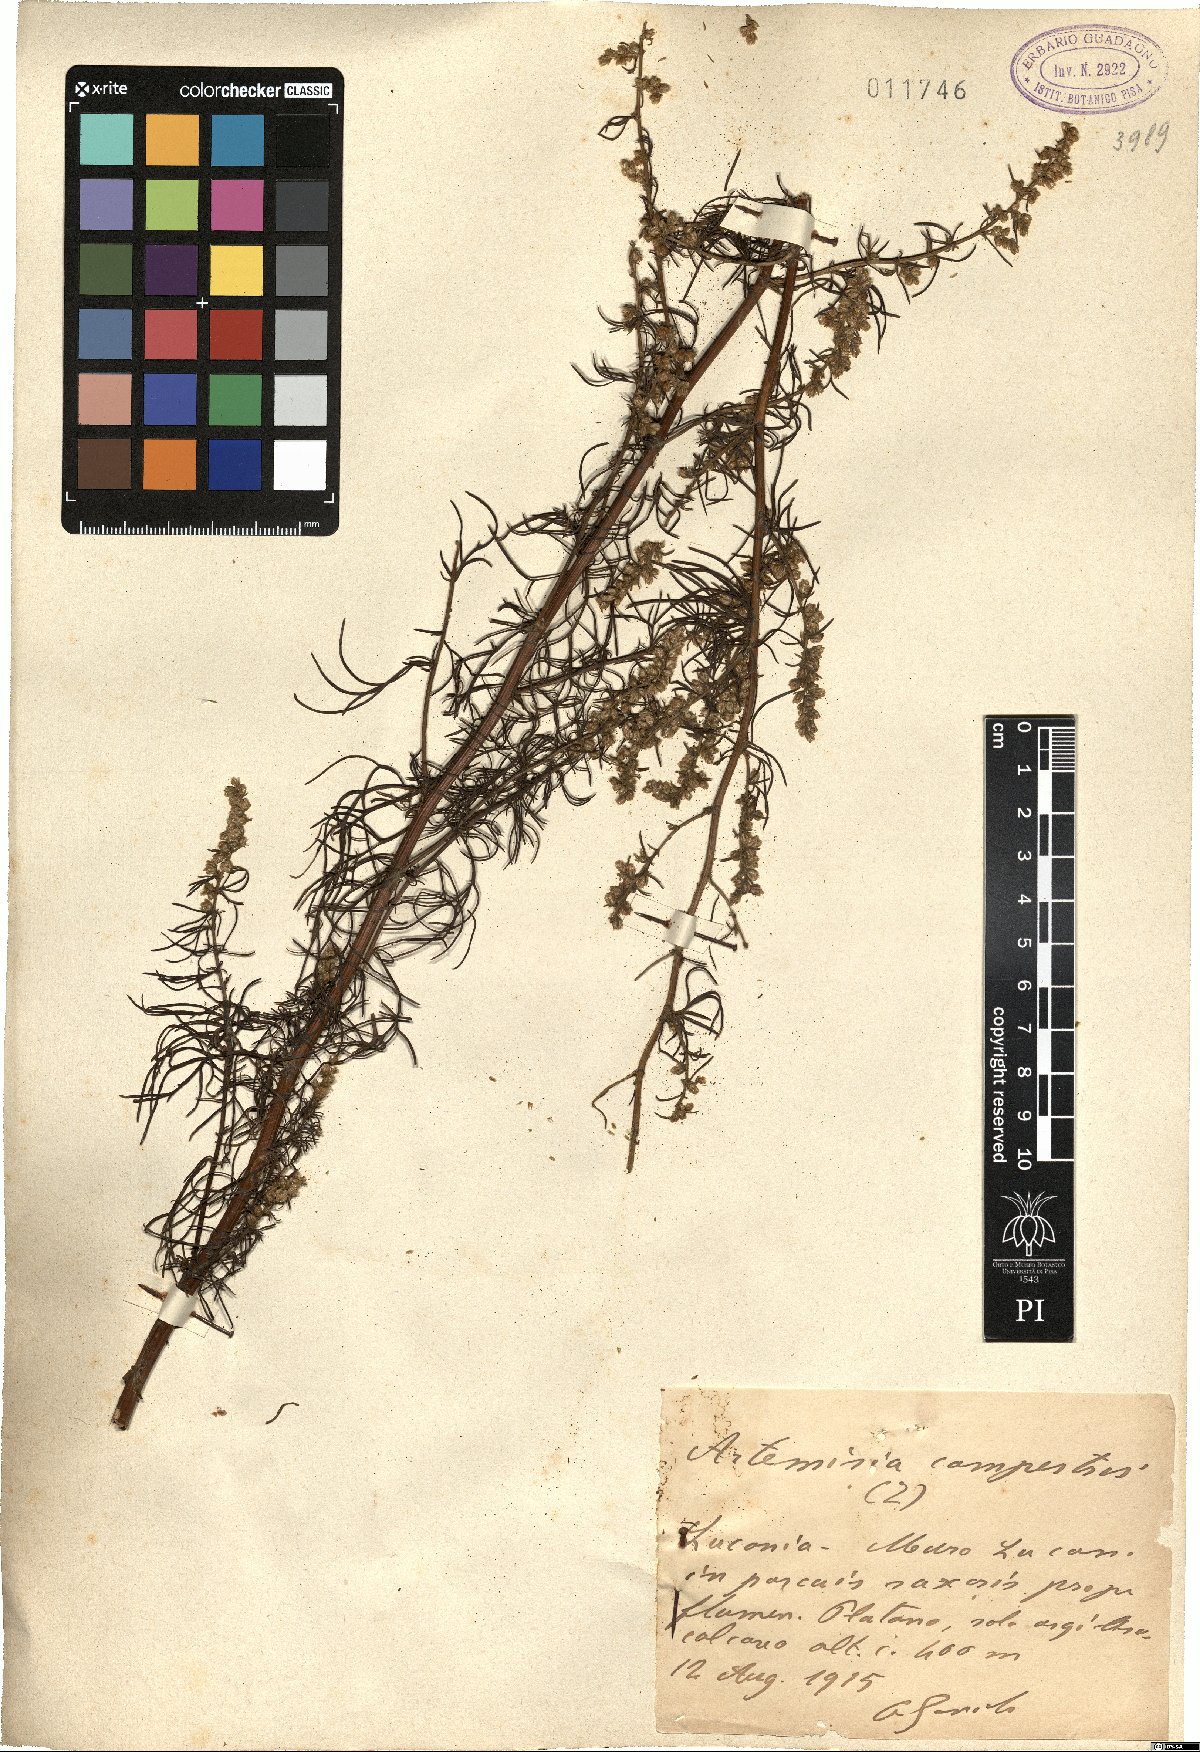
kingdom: Plantae
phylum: Tracheophyta
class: Magnoliopsida
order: Asterales
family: Asteraceae
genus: Artemisia
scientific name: Artemisia campestris
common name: Field wormwood
